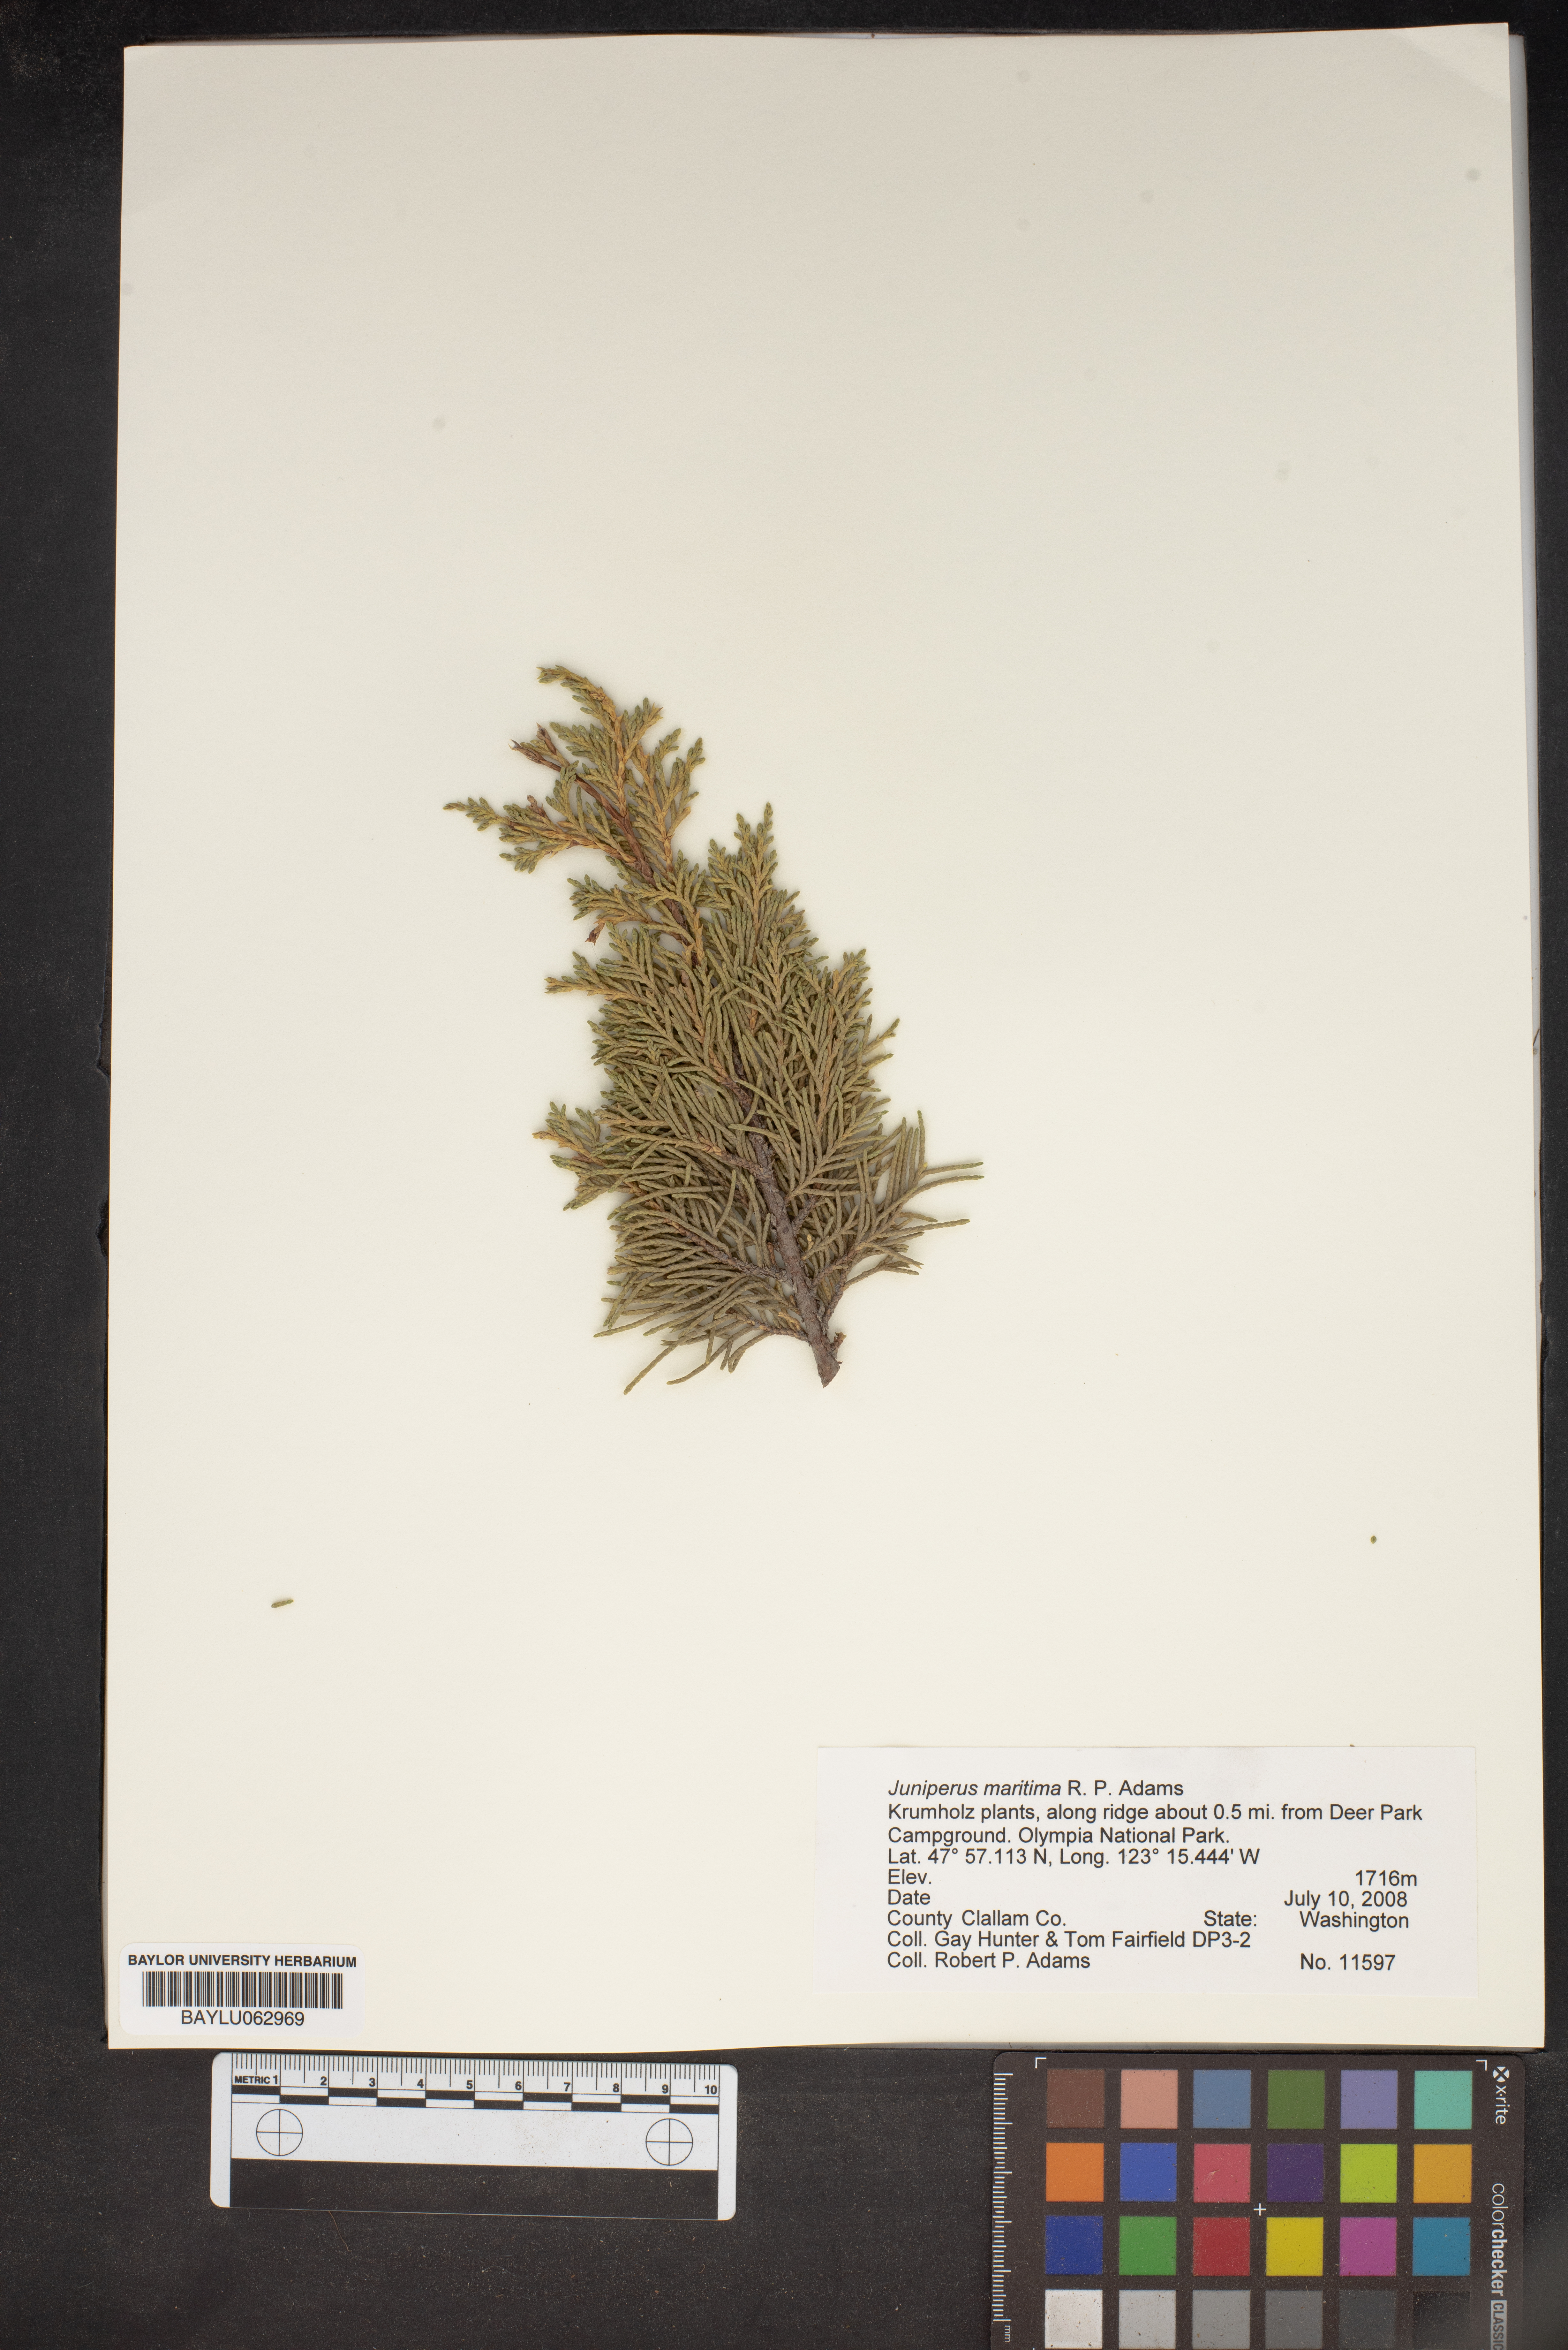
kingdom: Plantae
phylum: Tracheophyta
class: Pinopsida
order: Pinales
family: Cupressaceae
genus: Juniperus
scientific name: Juniperus scopulorum
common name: Rocky mountain juniper
